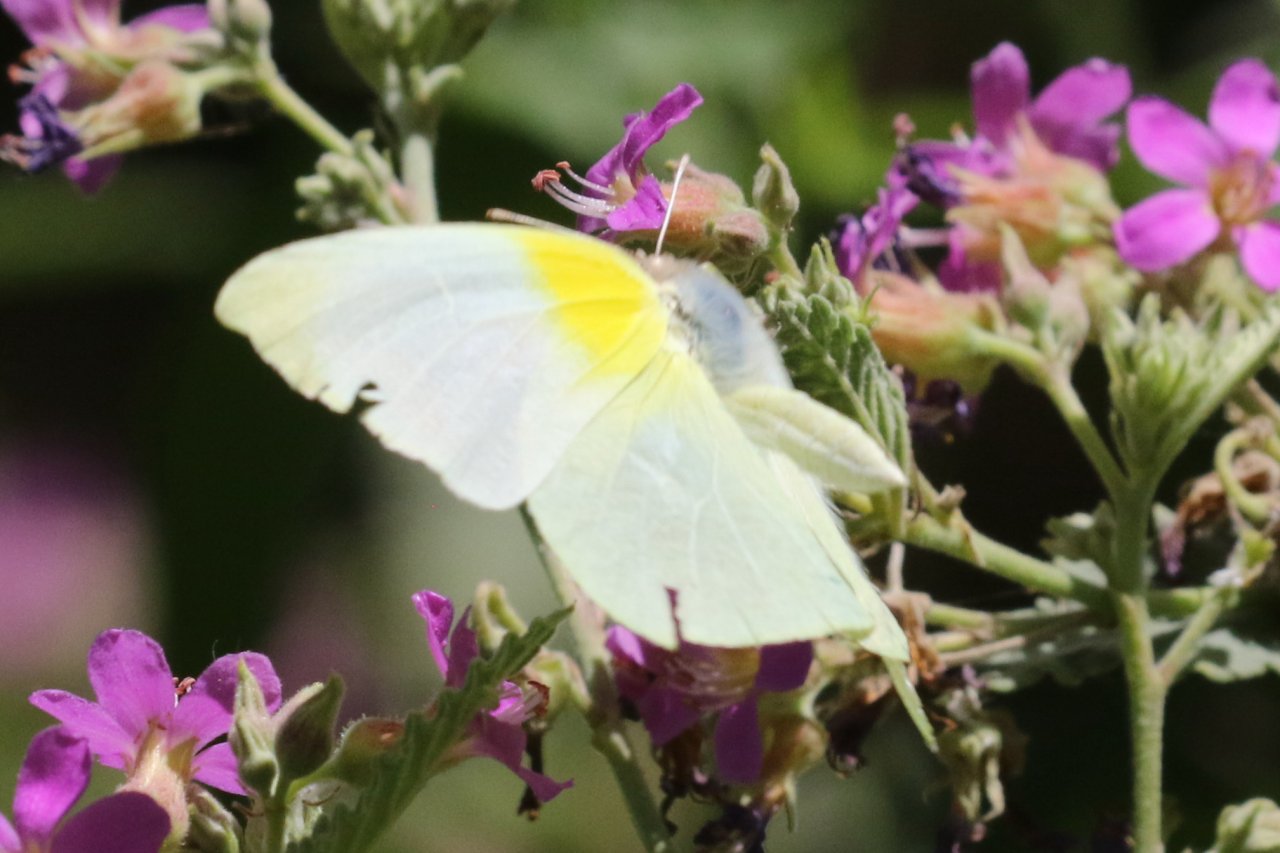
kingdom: Animalia
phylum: Arthropoda
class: Insecta
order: Lepidoptera
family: Pieridae
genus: Kricogonia
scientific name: Kricogonia lyside
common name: Lyside Sulphur
